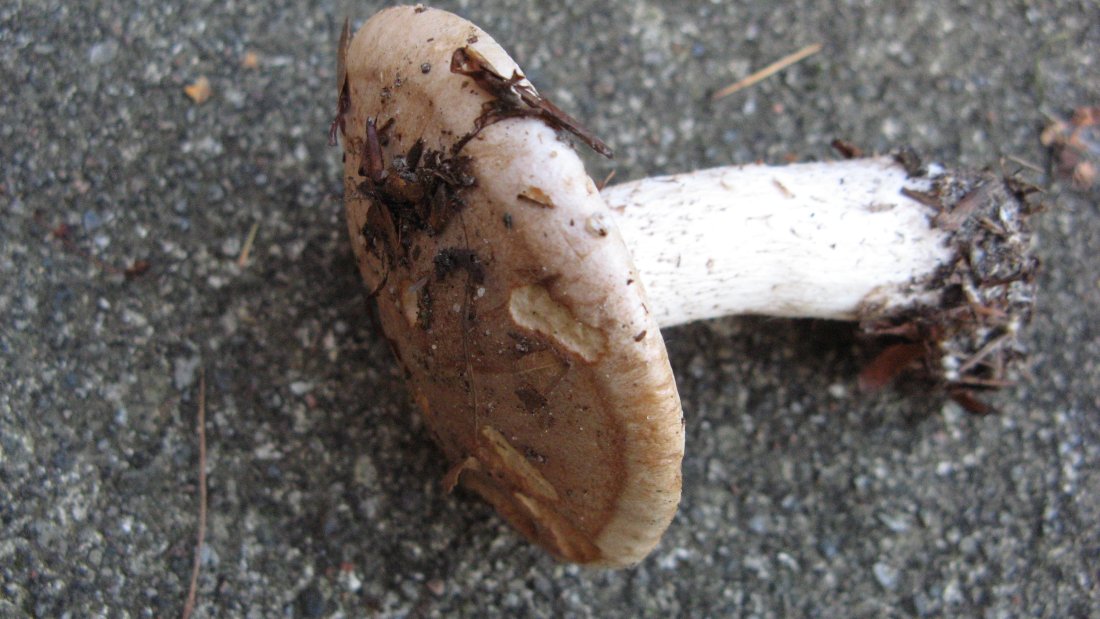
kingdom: Fungi
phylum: Basidiomycota
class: Agaricomycetes
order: Agaricales
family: Hymenogastraceae
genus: Hebeloma
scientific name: Hebeloma sinapizans
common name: ræddike-tåreblad
